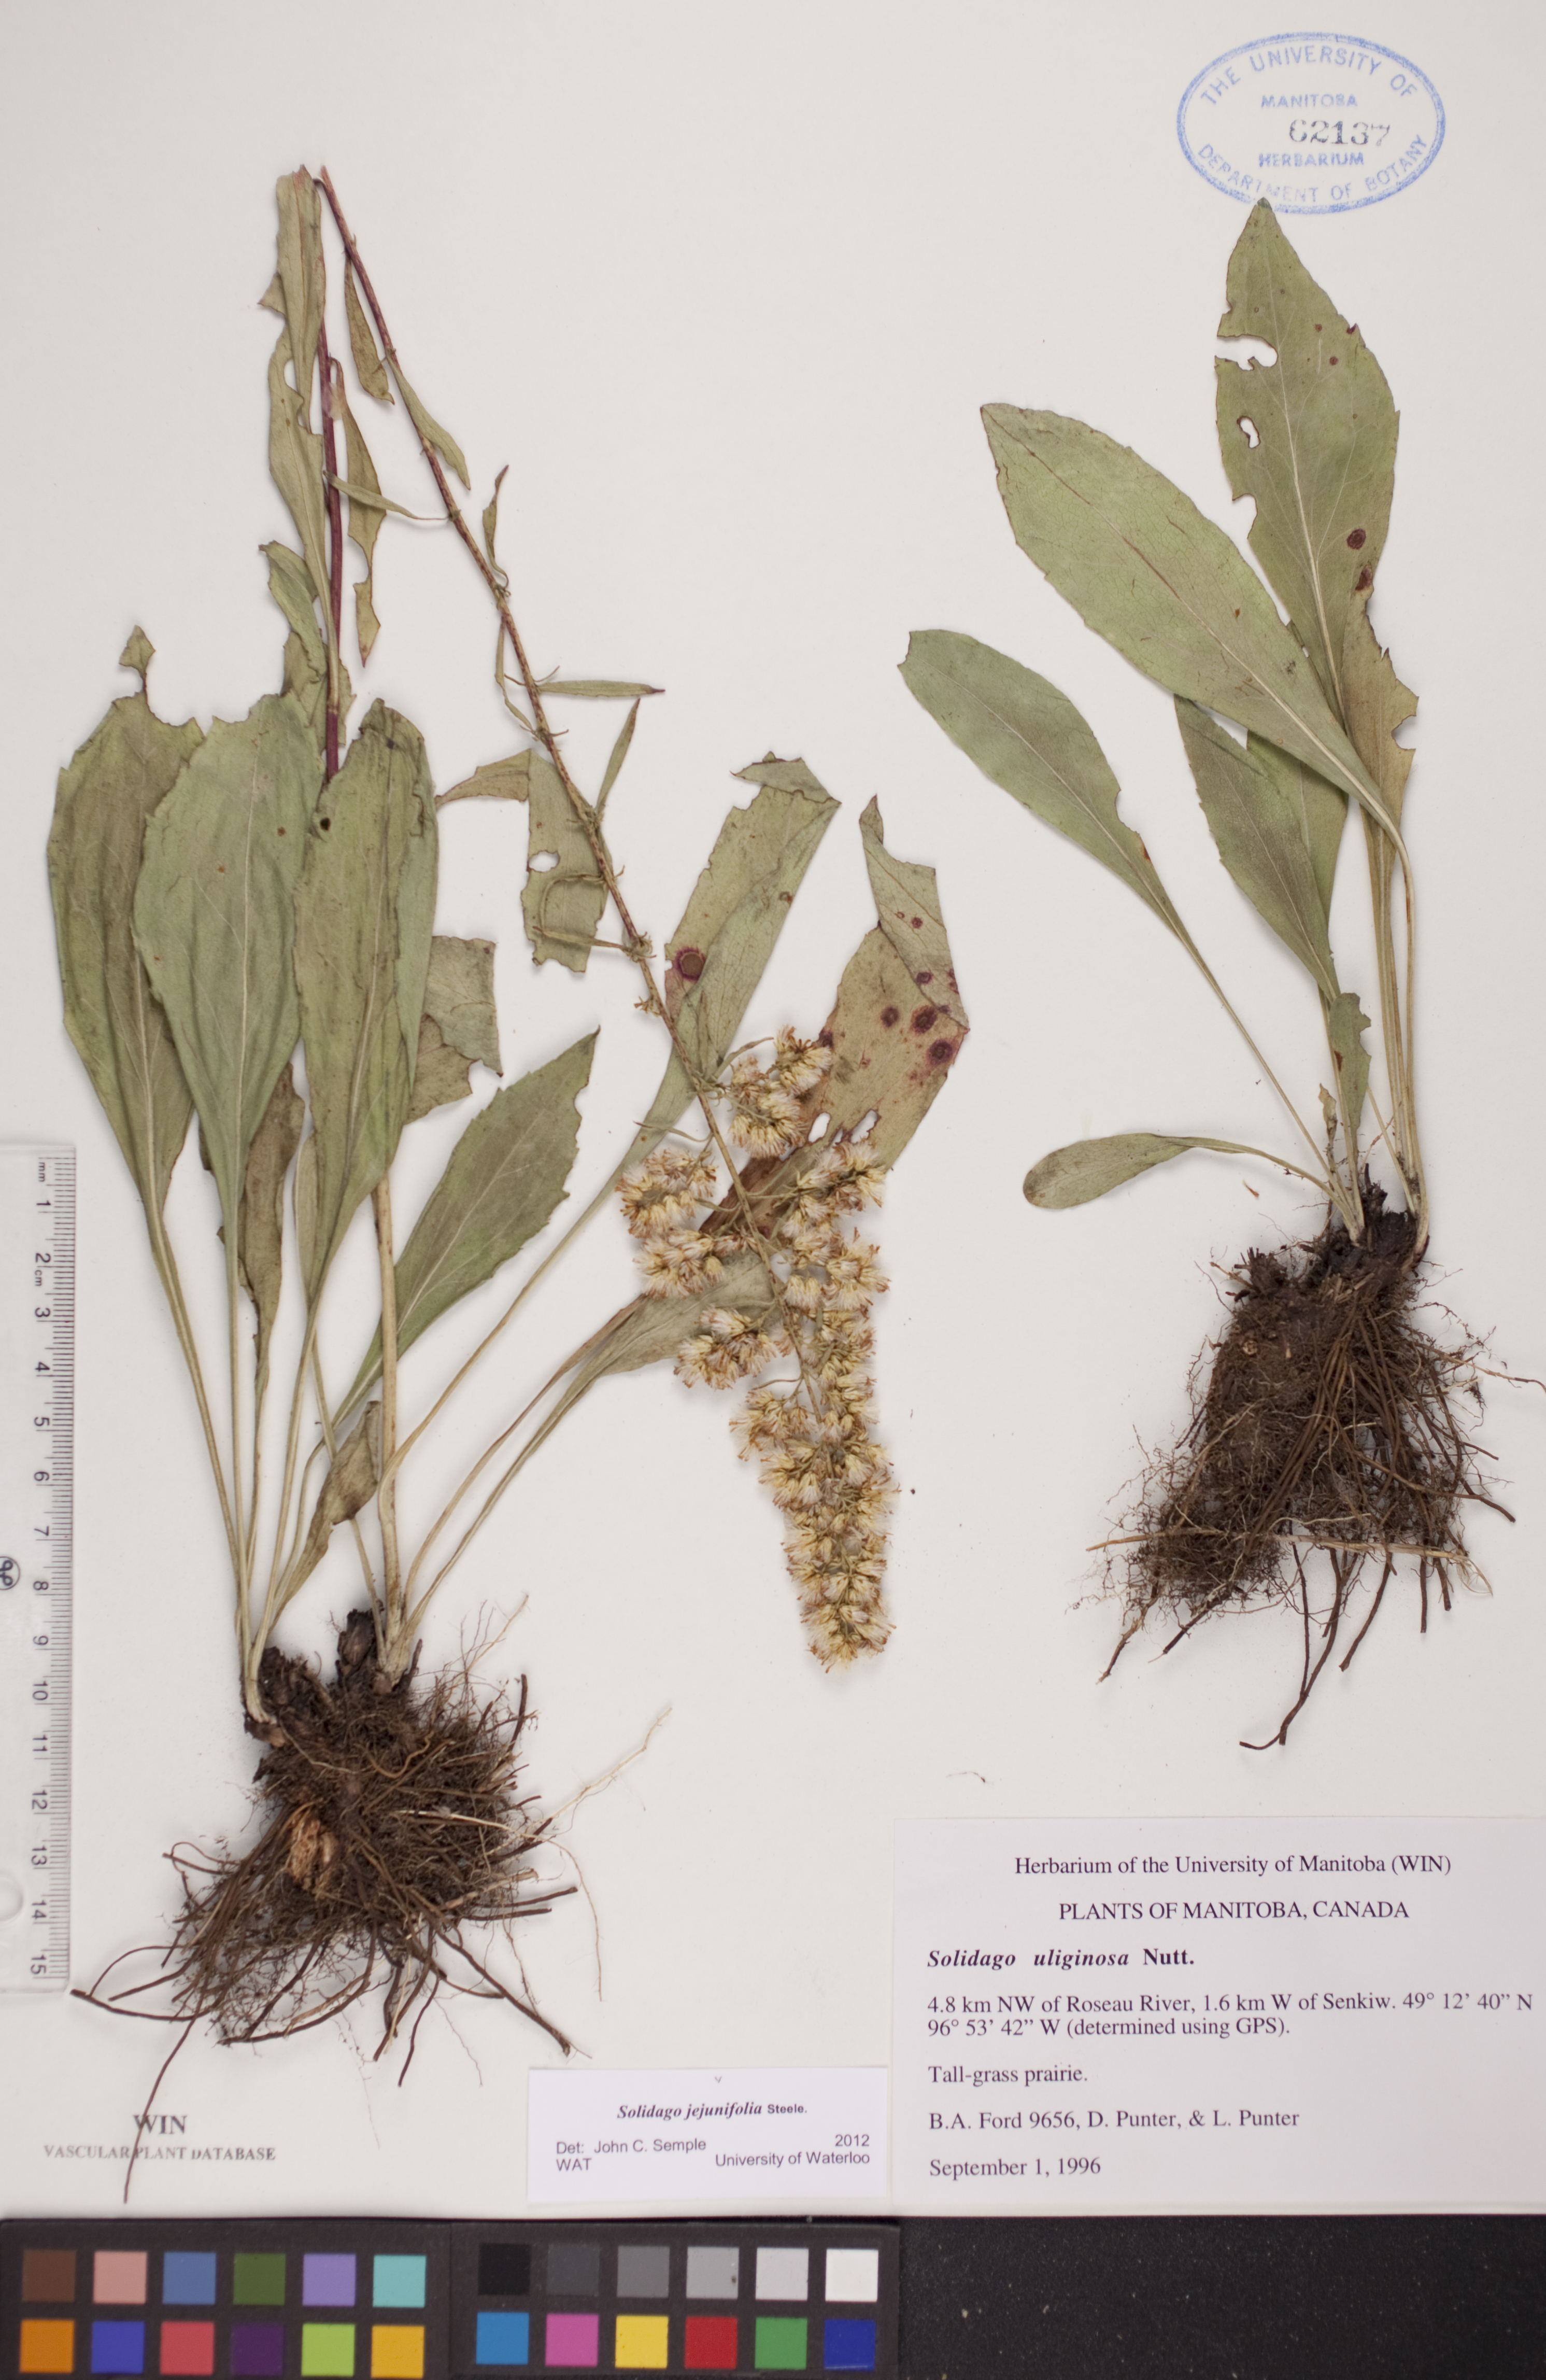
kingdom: Plantae
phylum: Tracheophyta
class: Magnoliopsida
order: Asterales
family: Asteraceae
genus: Solidago
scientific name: Solidago jejunifolia
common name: Few-leaved goldenrod
